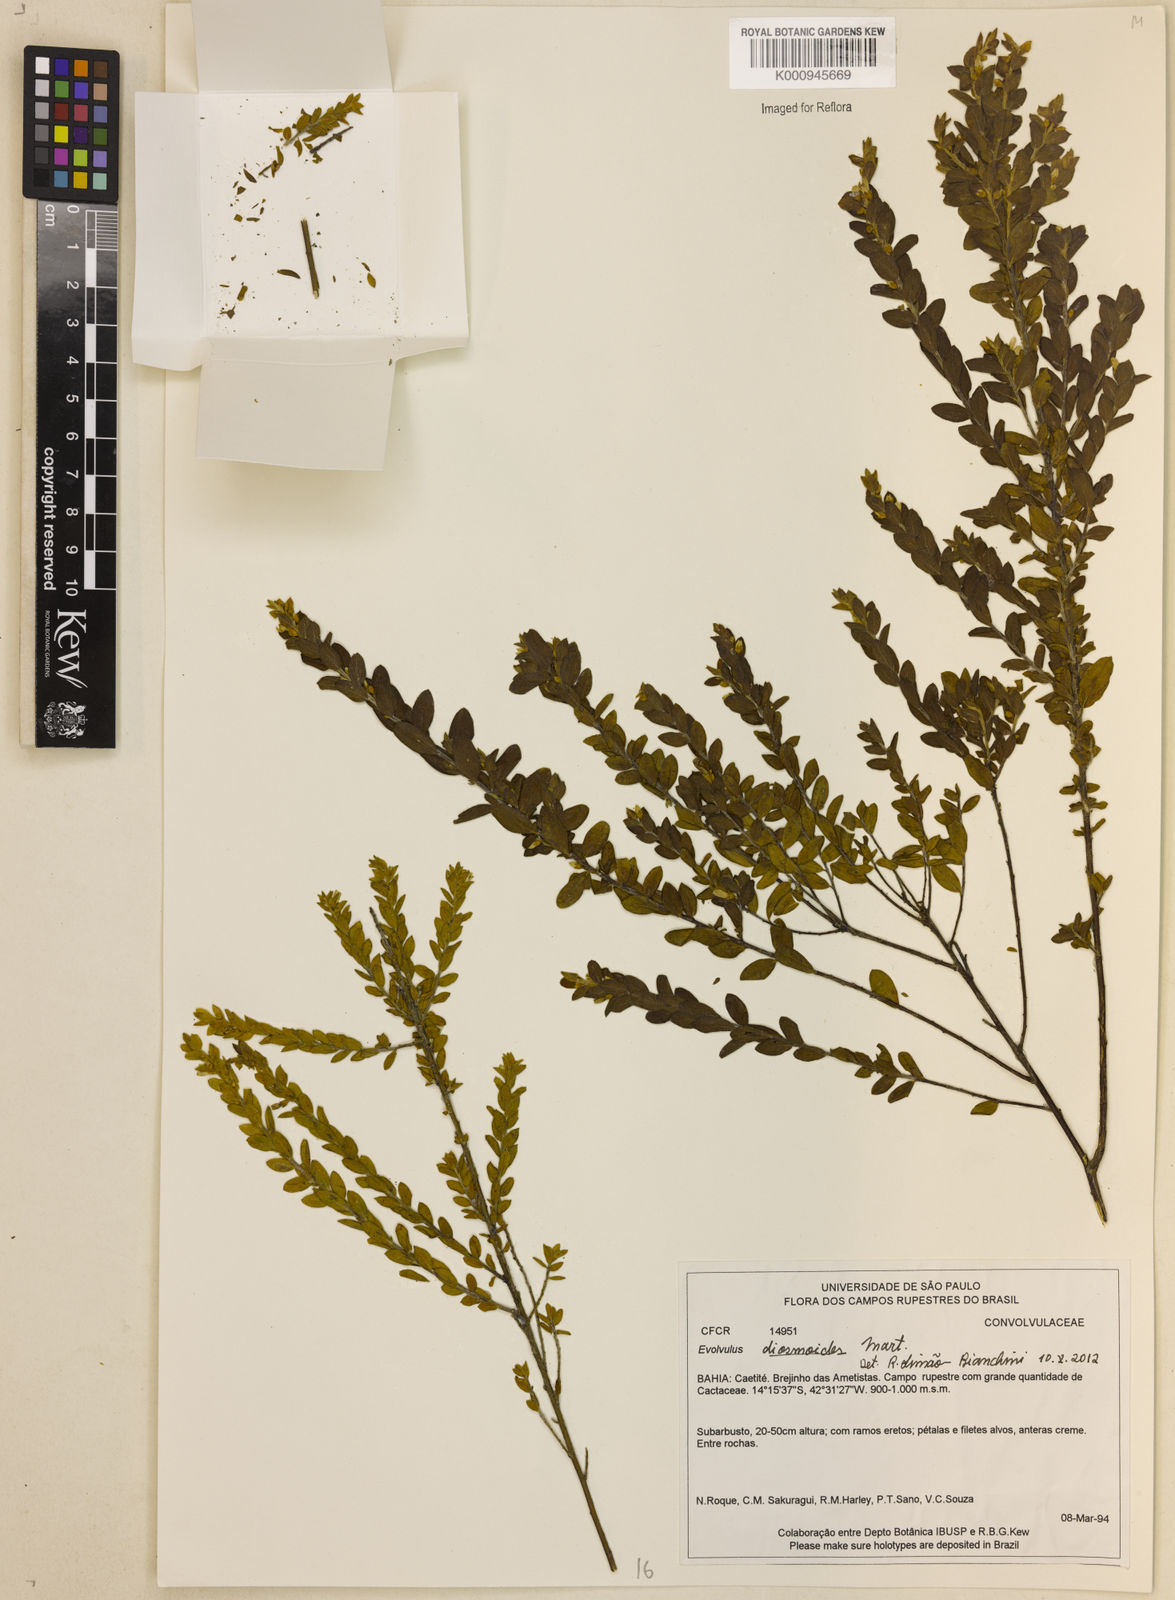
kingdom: Plantae
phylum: Tracheophyta
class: Magnoliopsida
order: Solanales
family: Convolvulaceae
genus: Evolvulus
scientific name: Evolvulus diosmoides
